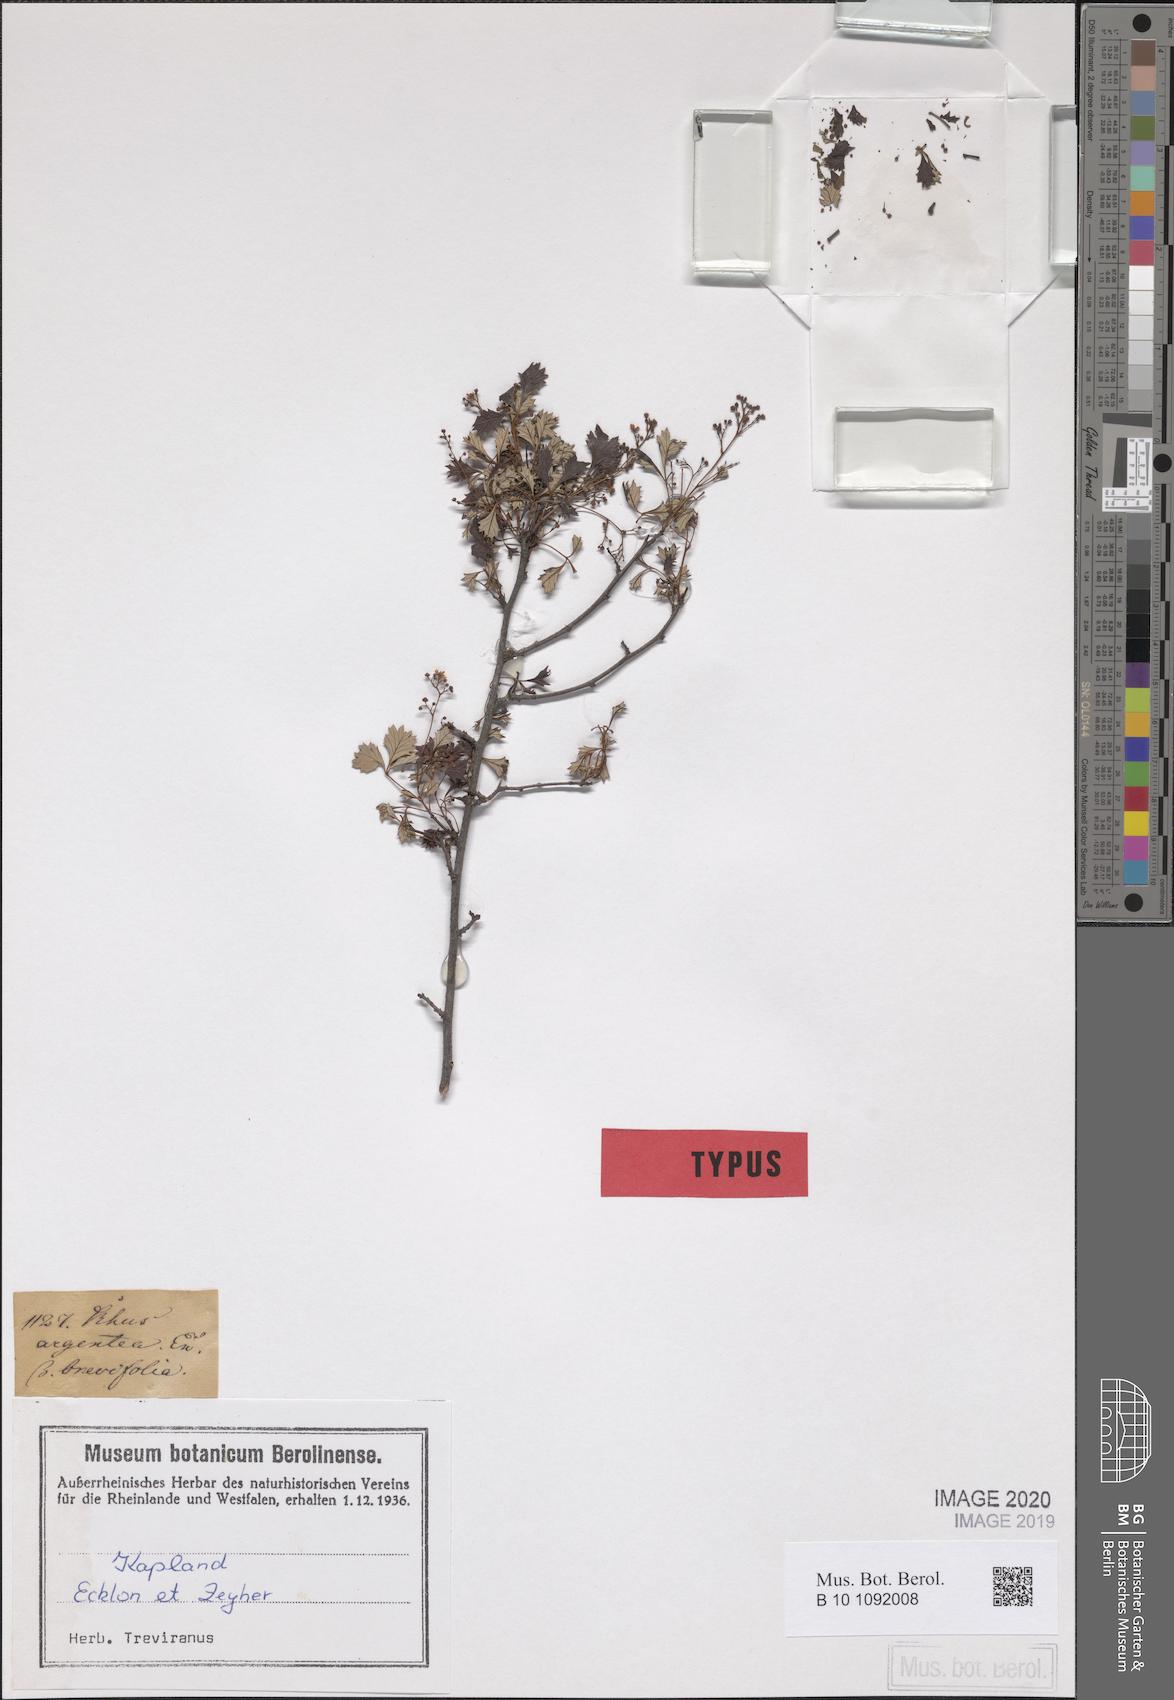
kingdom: Plantae
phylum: Tracheophyta
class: Magnoliopsida
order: Sapindales
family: Anacardiaceae
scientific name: Anacardiaceae
